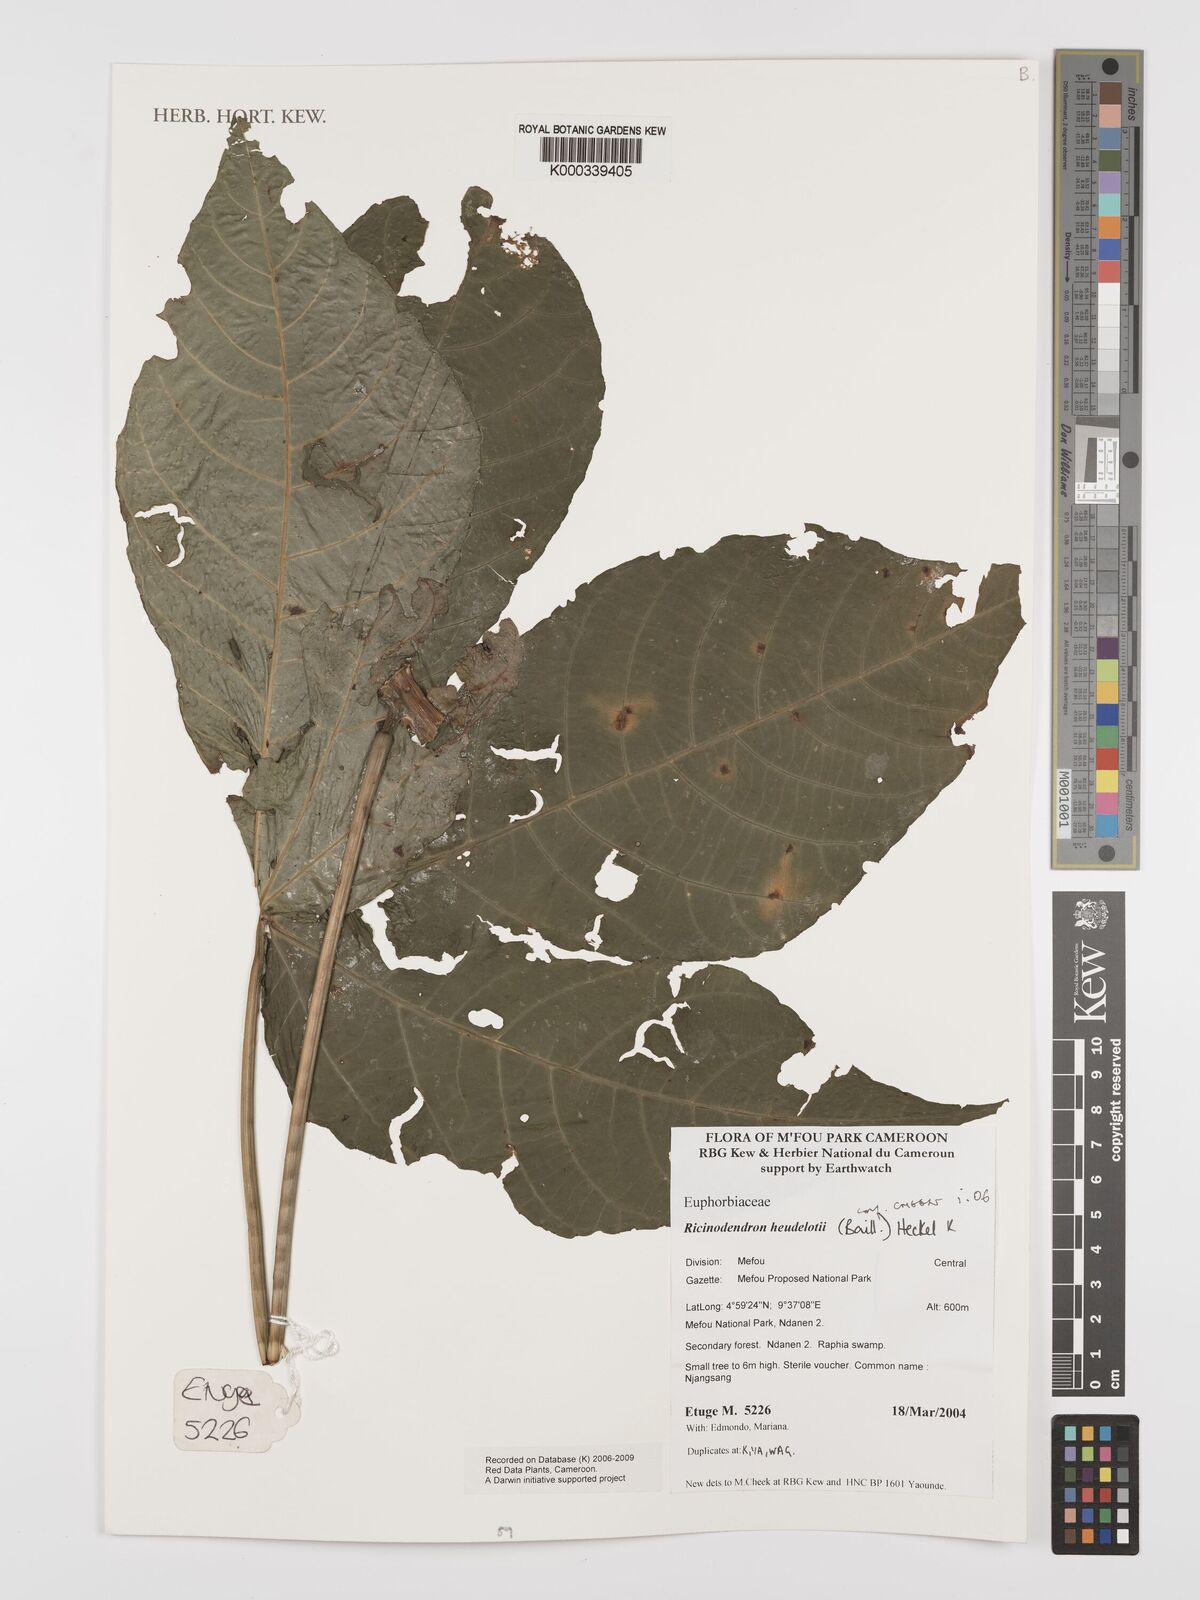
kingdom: Plantae
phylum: Tracheophyta
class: Magnoliopsida
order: Malpighiales
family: Euphorbiaceae
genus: Ricinodendron
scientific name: Ricinodendron heudelotii
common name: African nut-tree
